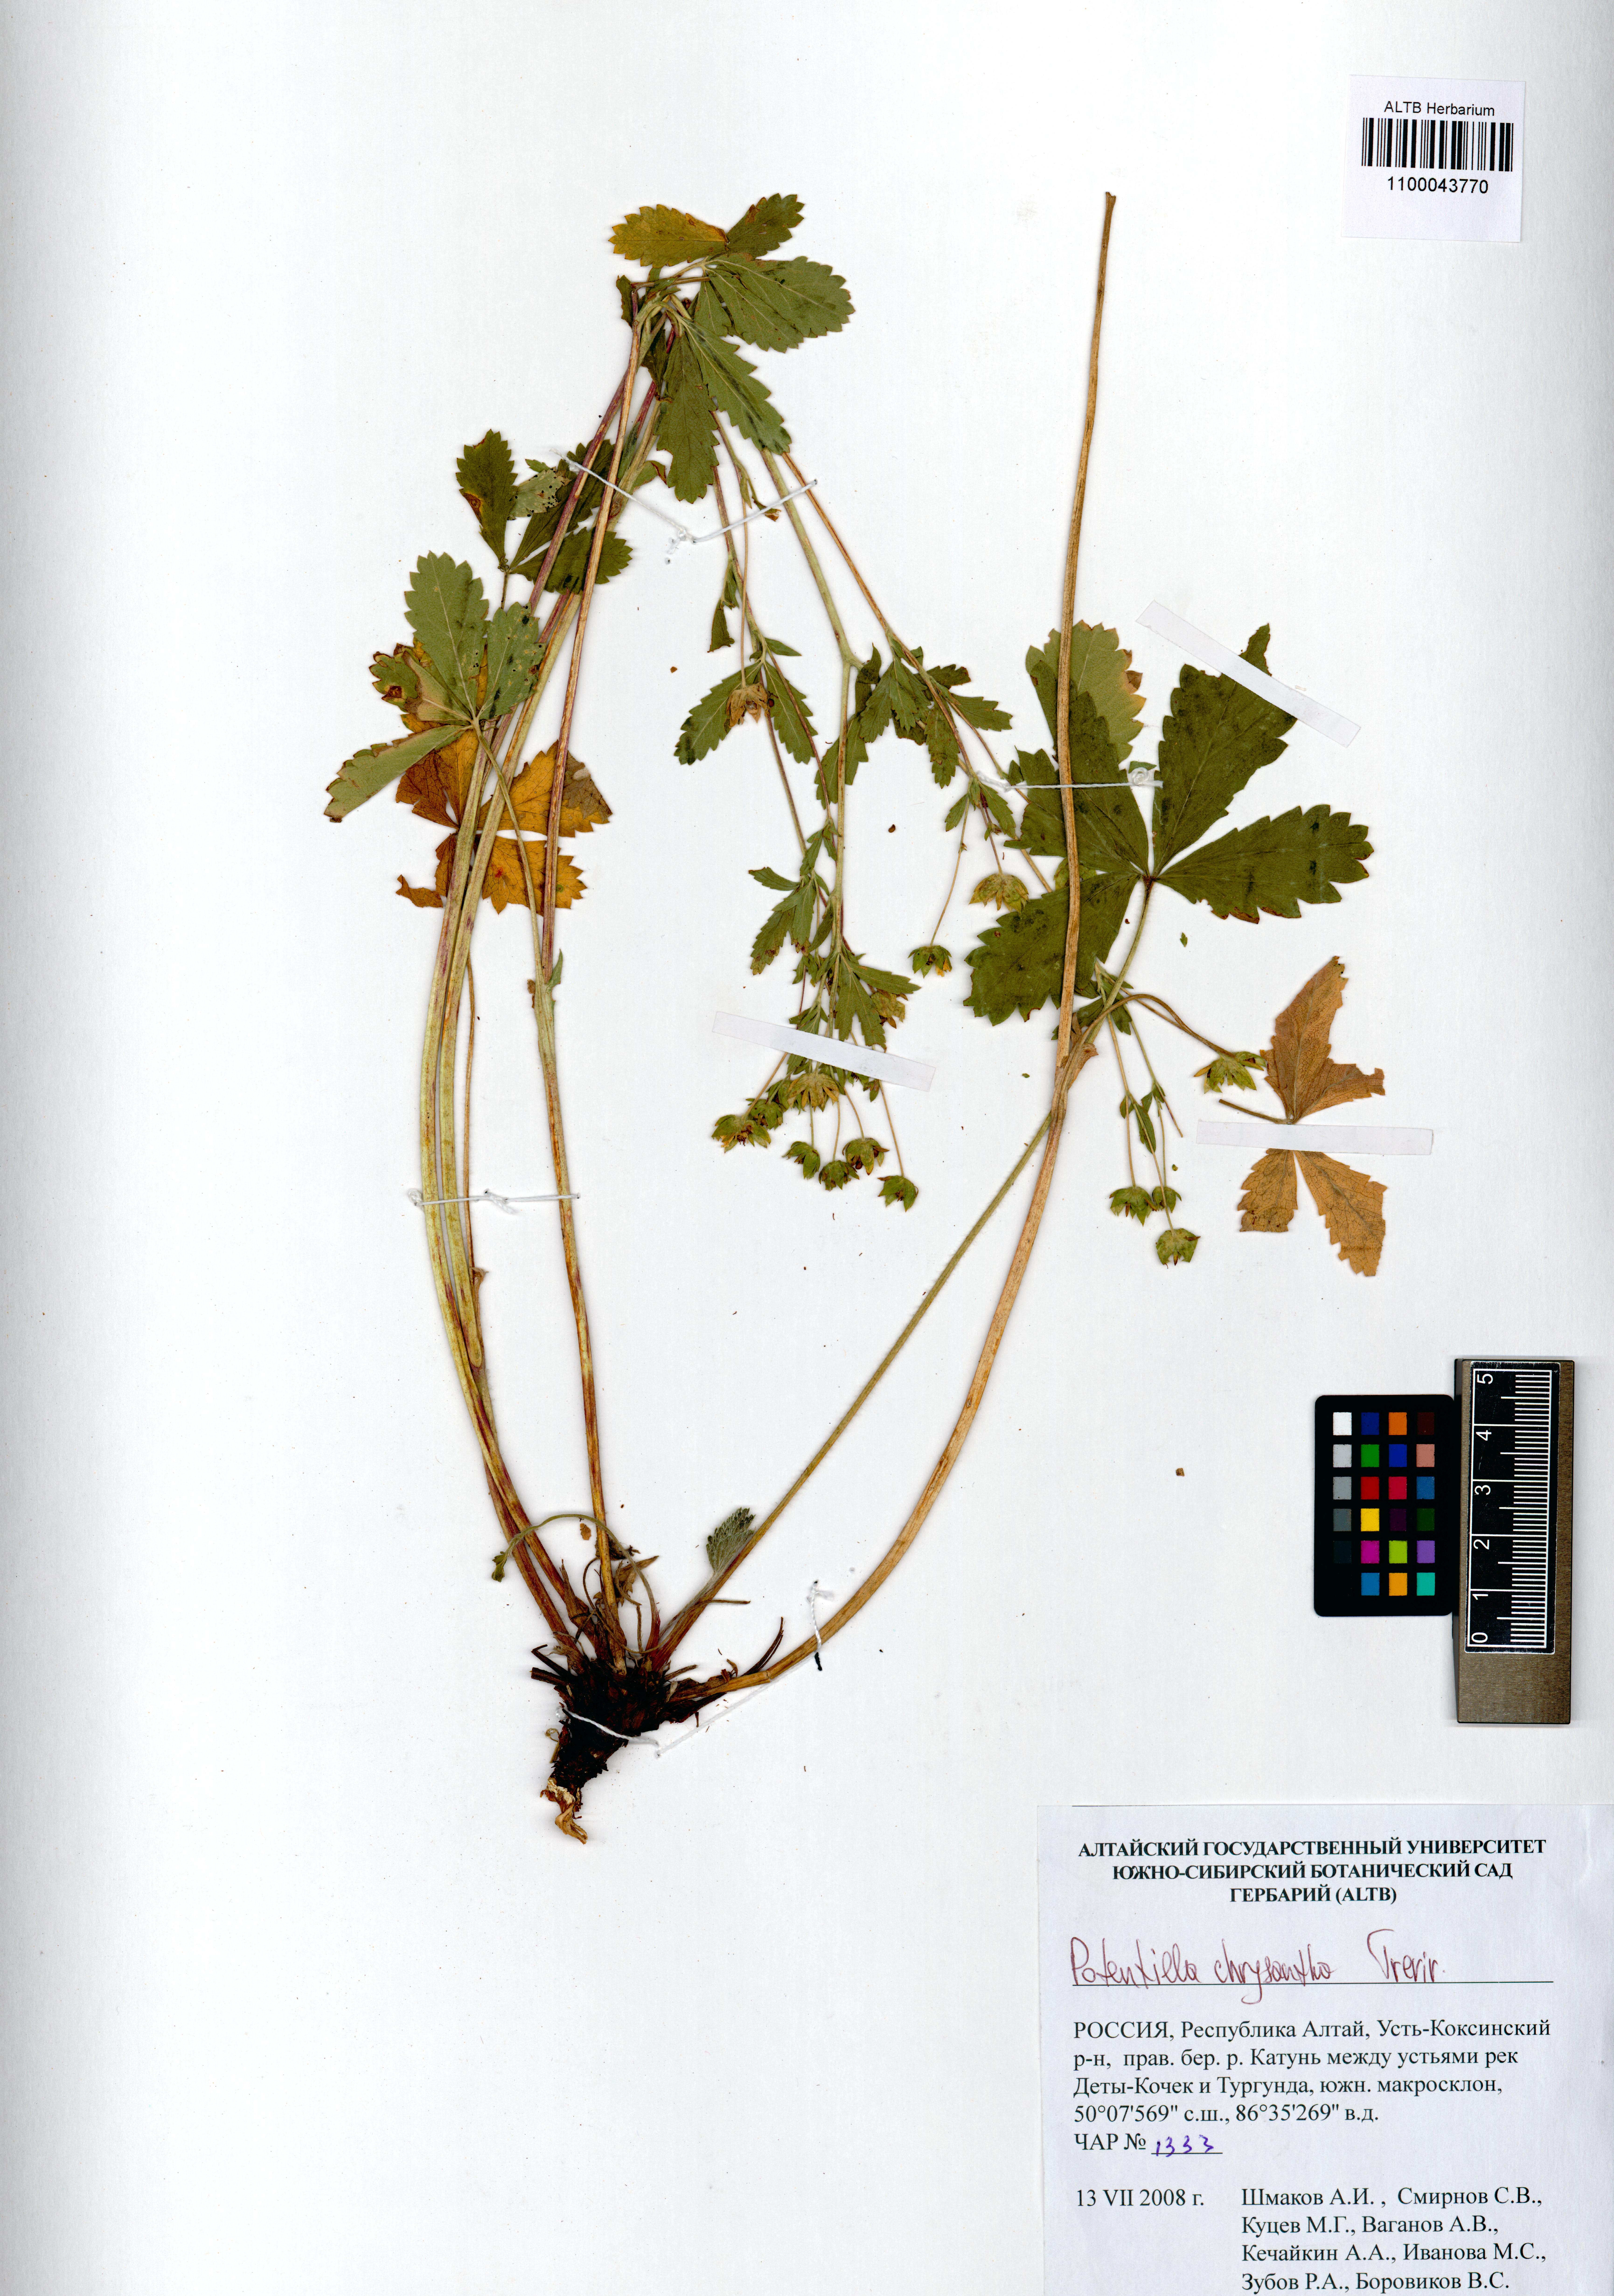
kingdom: Plantae
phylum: Tracheophyta
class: Magnoliopsida
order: Rosales
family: Rosaceae
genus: Potentilla
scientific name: Potentilla chrysantha
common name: Thuringian cinquefoil
